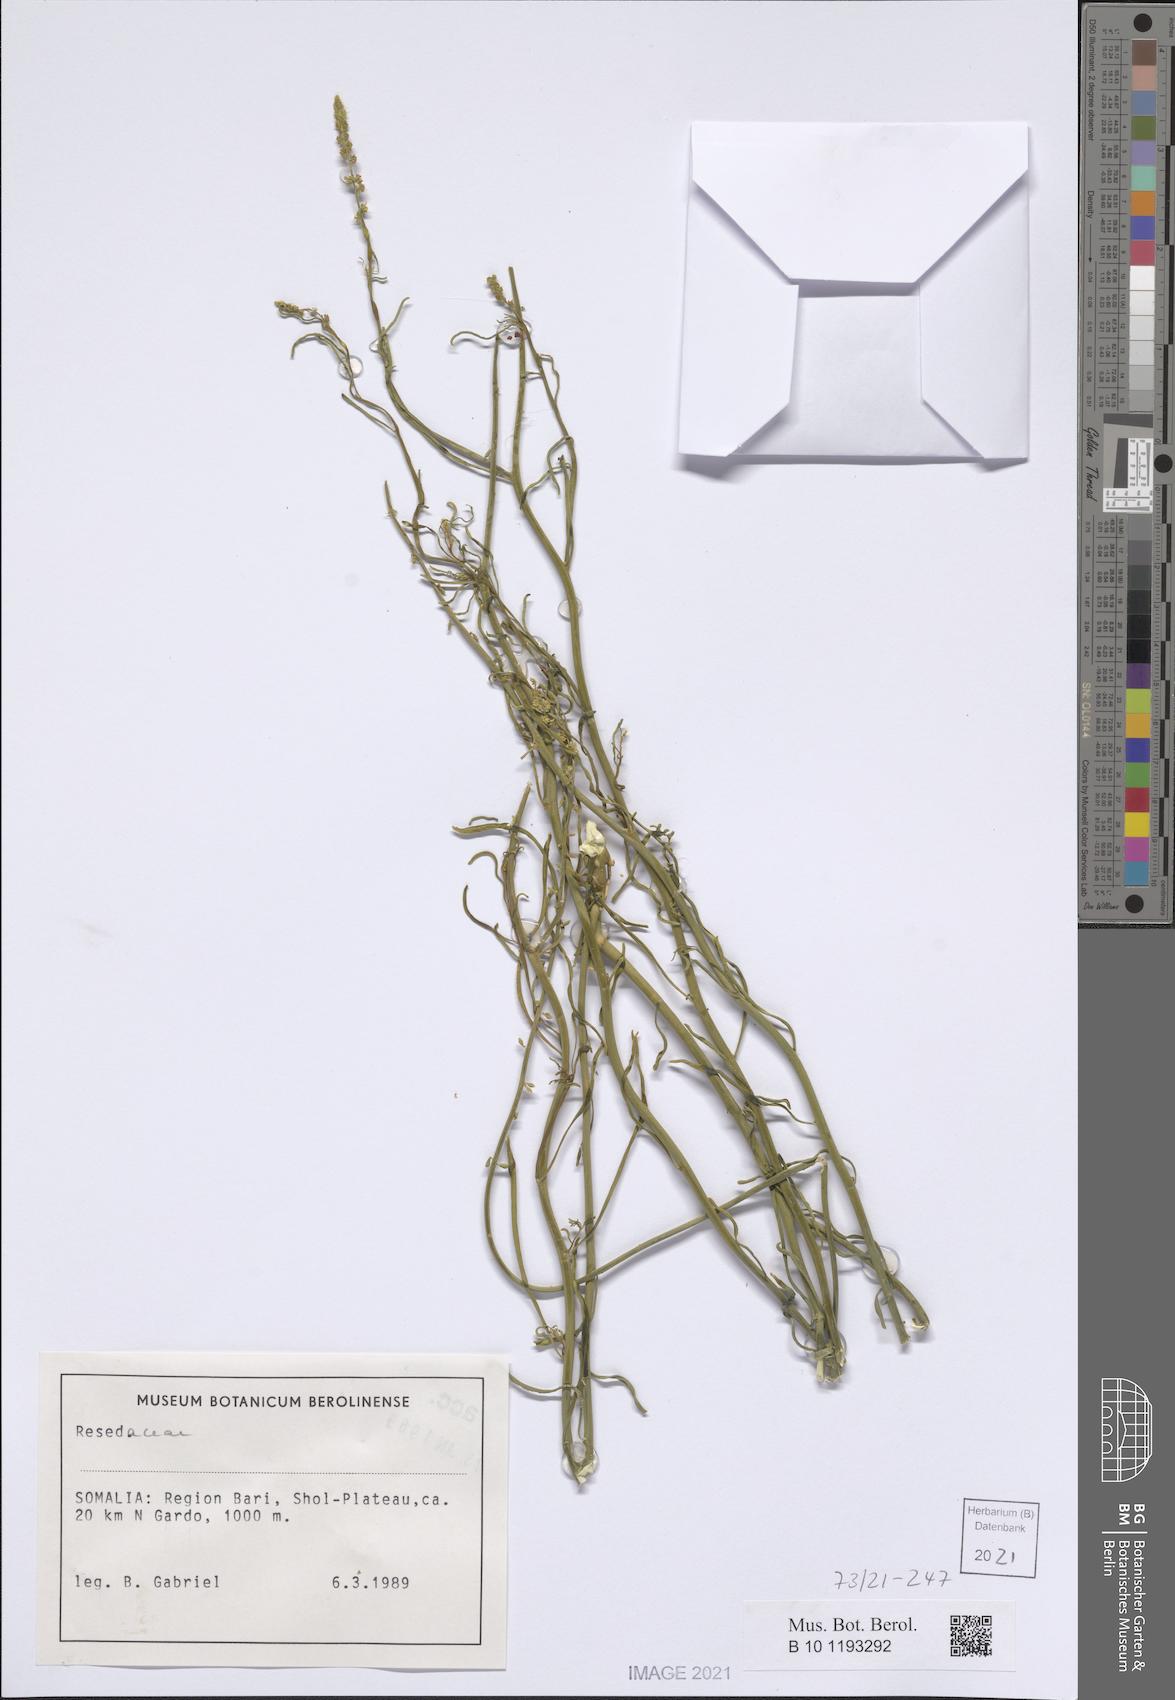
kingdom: Plantae
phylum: Tracheophyta
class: Magnoliopsida
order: Brassicales
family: Resedaceae
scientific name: Resedaceae
